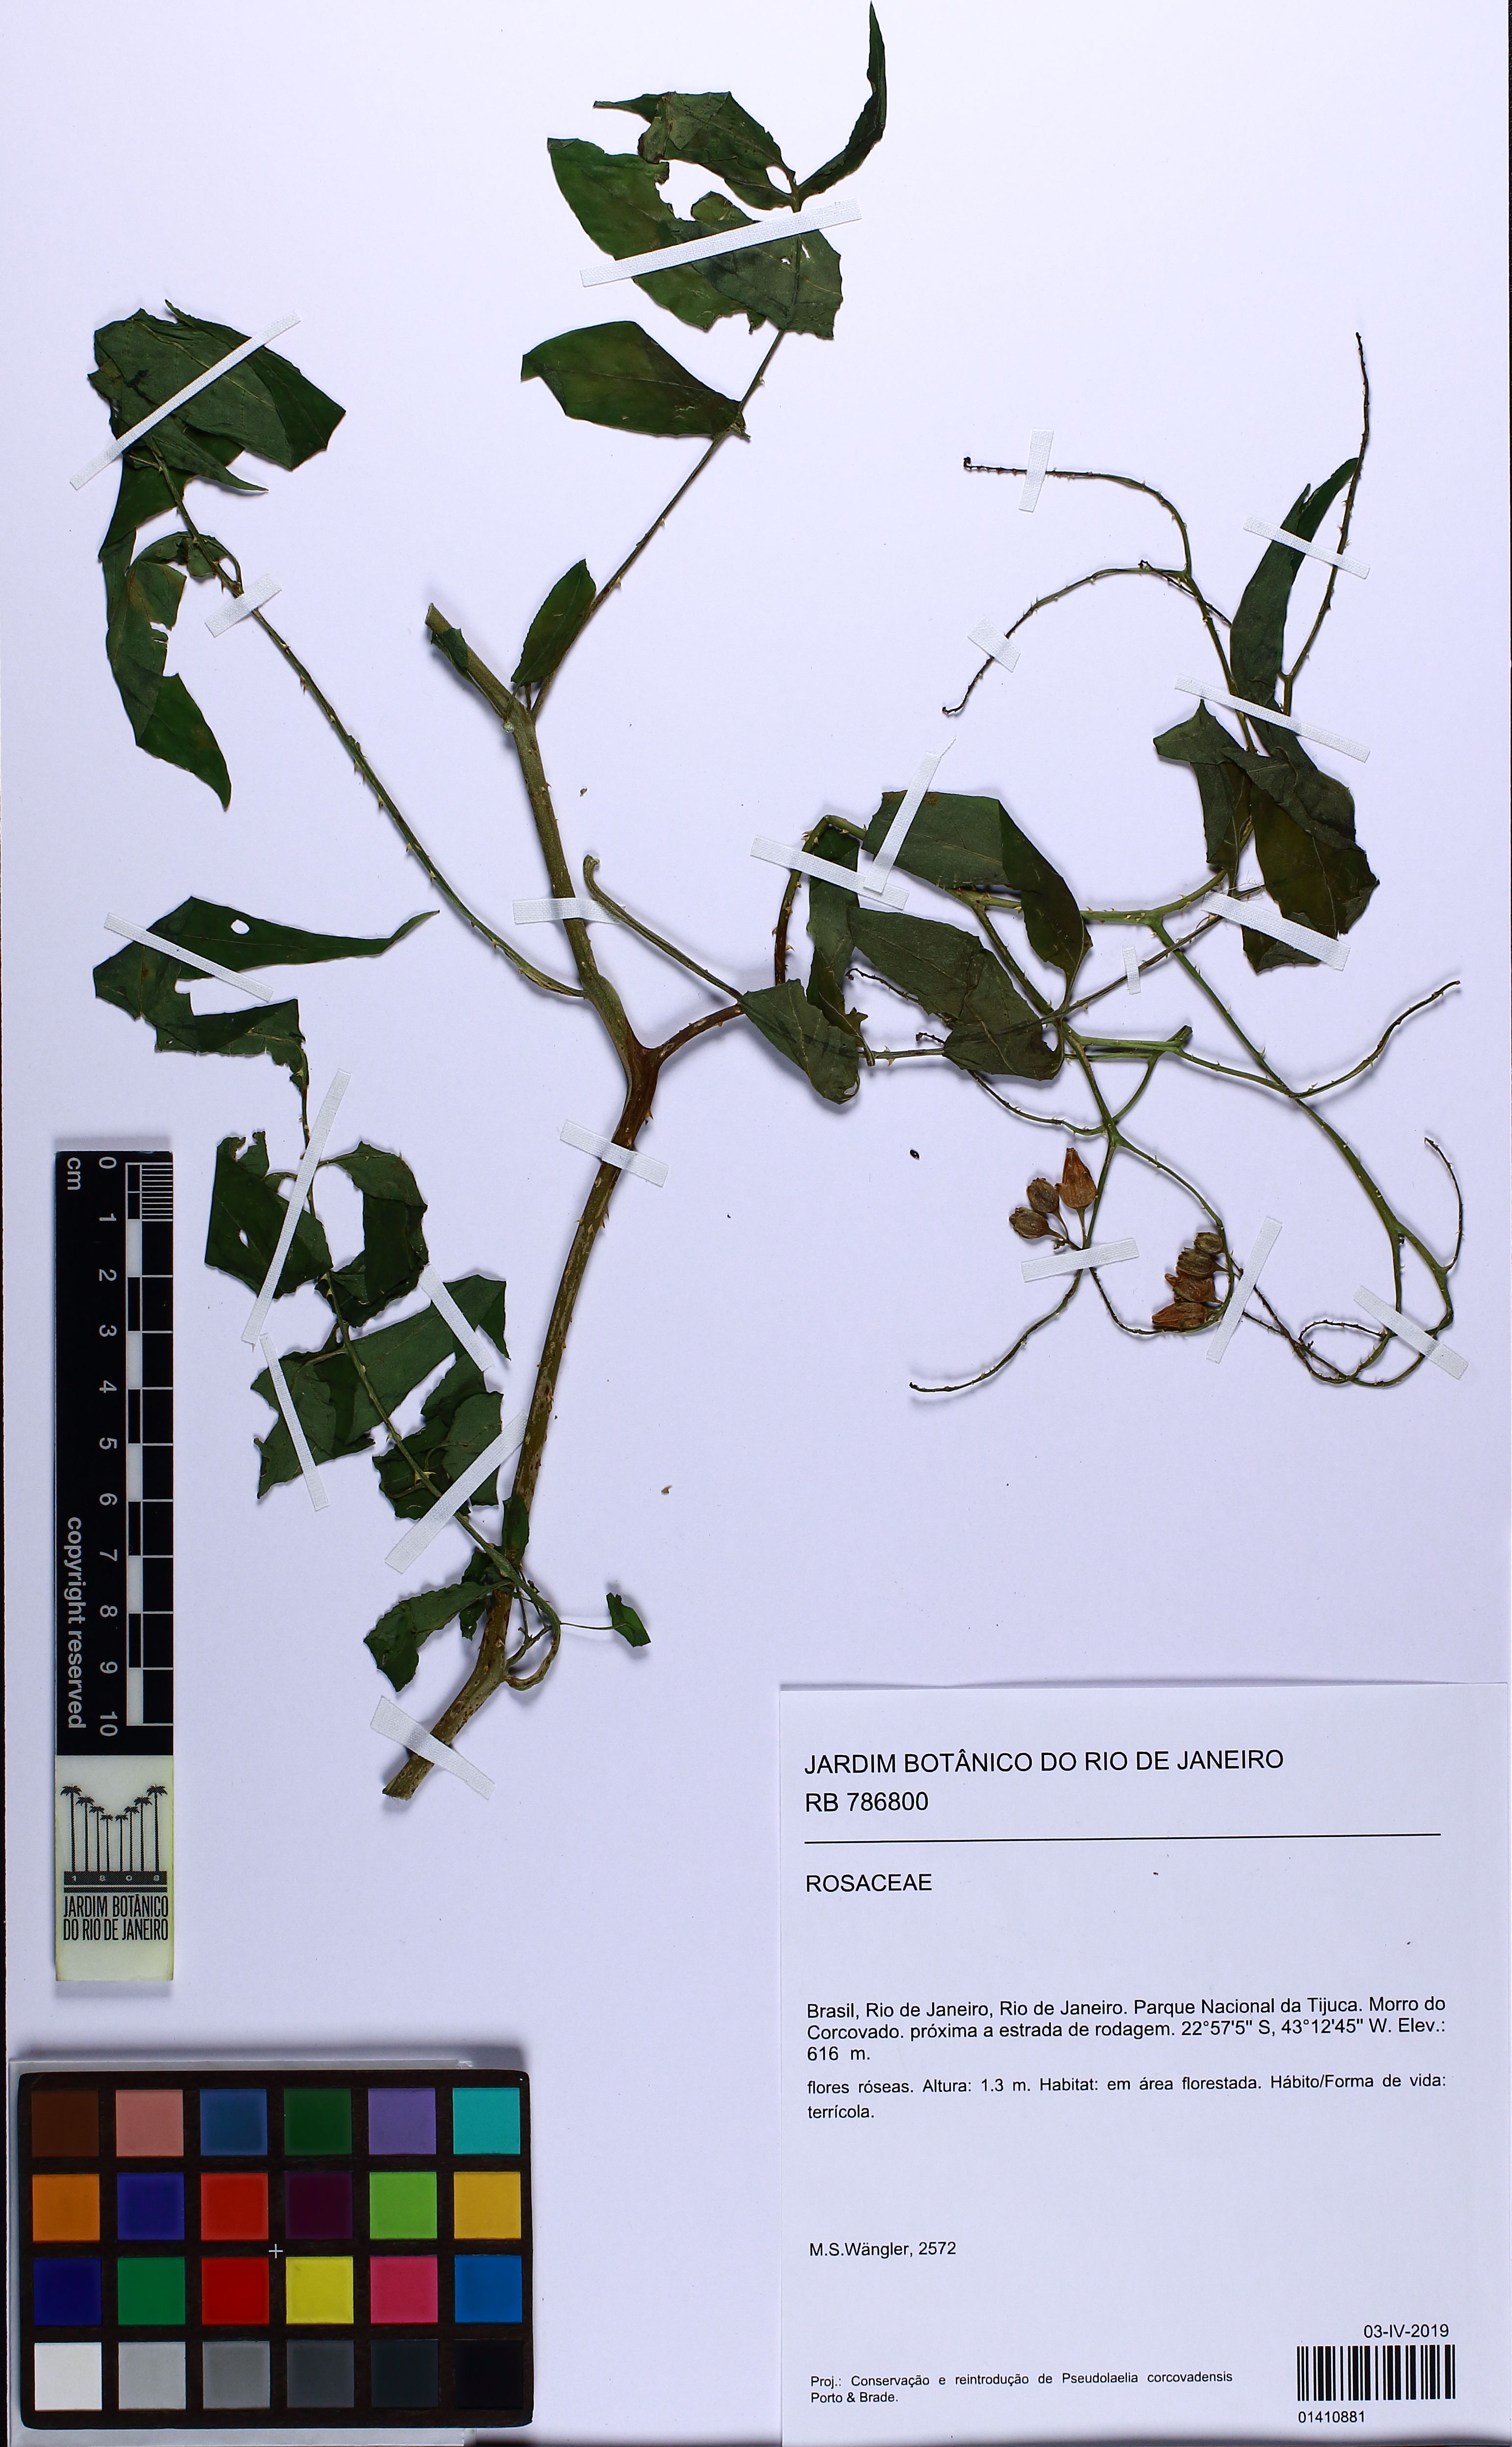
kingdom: Plantae
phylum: Tracheophyta
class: Magnoliopsida
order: Rosales
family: Rosaceae
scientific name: Rosaceae
